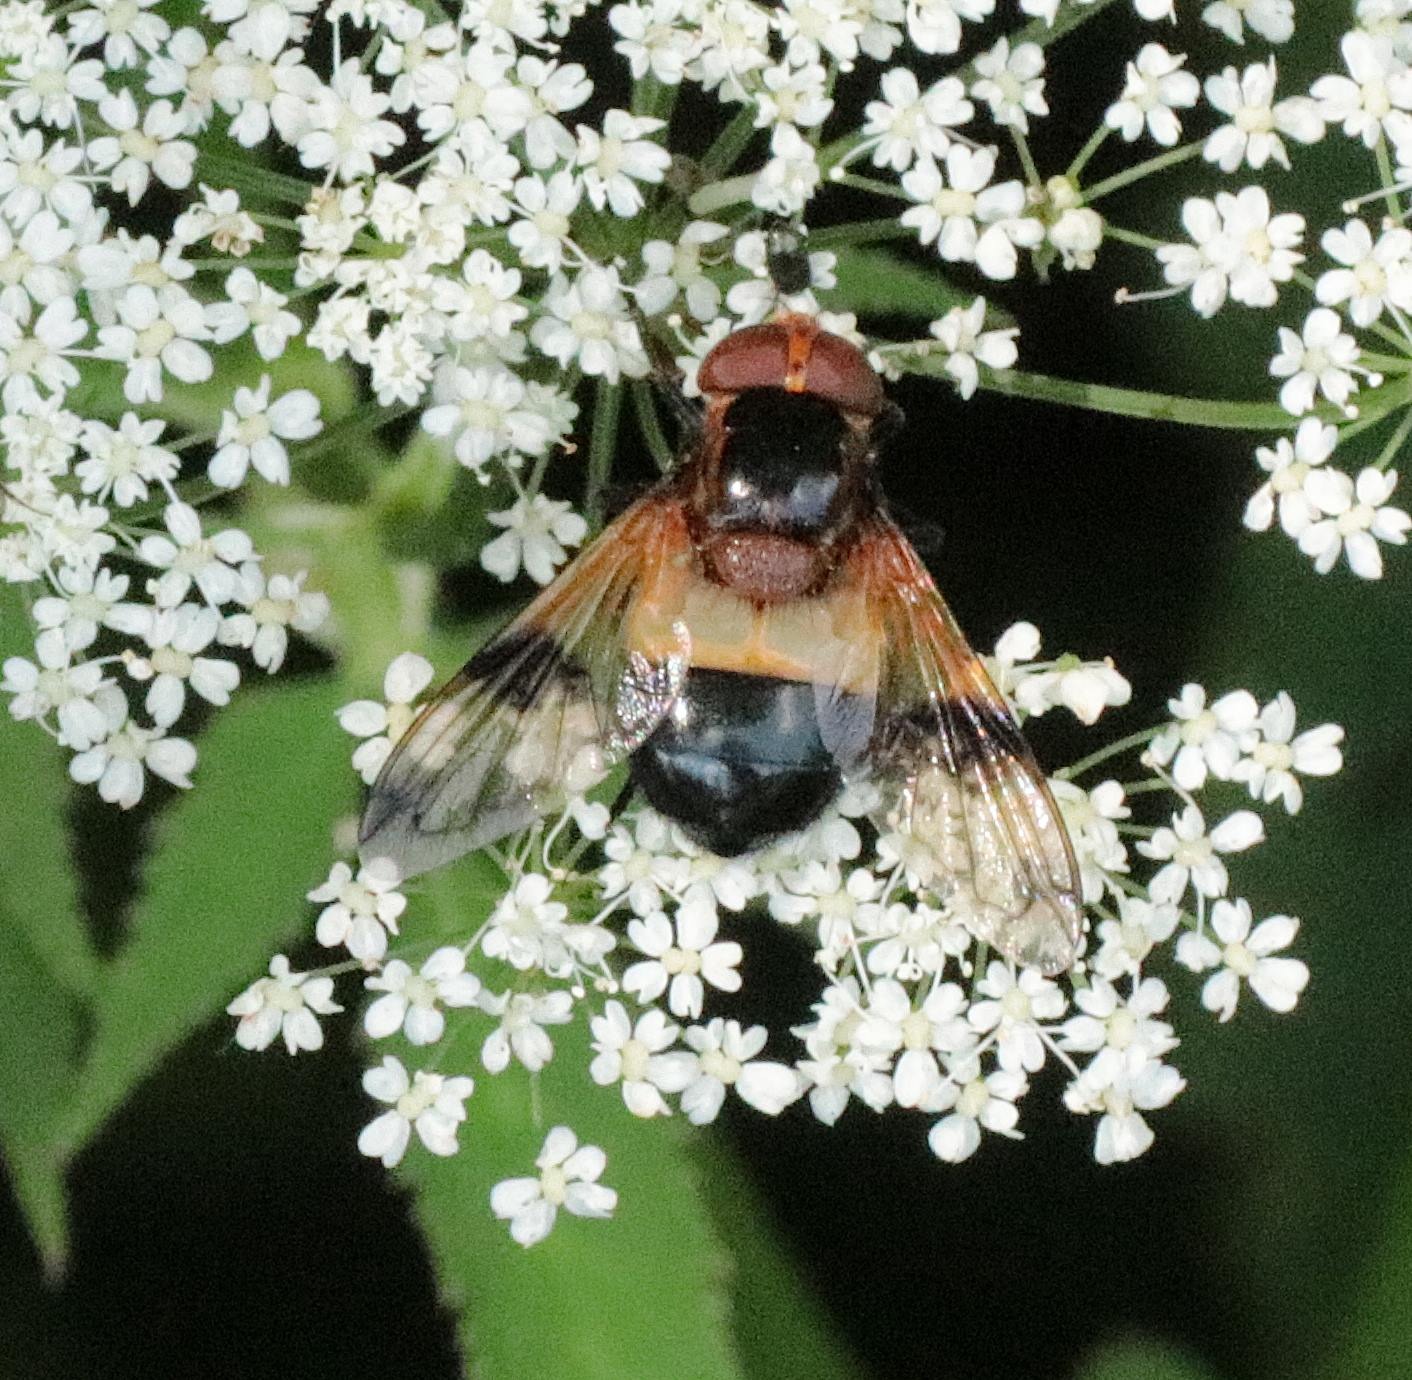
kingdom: Animalia
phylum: Arthropoda
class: Insecta
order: Diptera
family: Syrphidae
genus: Volucella
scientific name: Volucella pellucens
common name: Hvidbåndet humlesvirreflue
